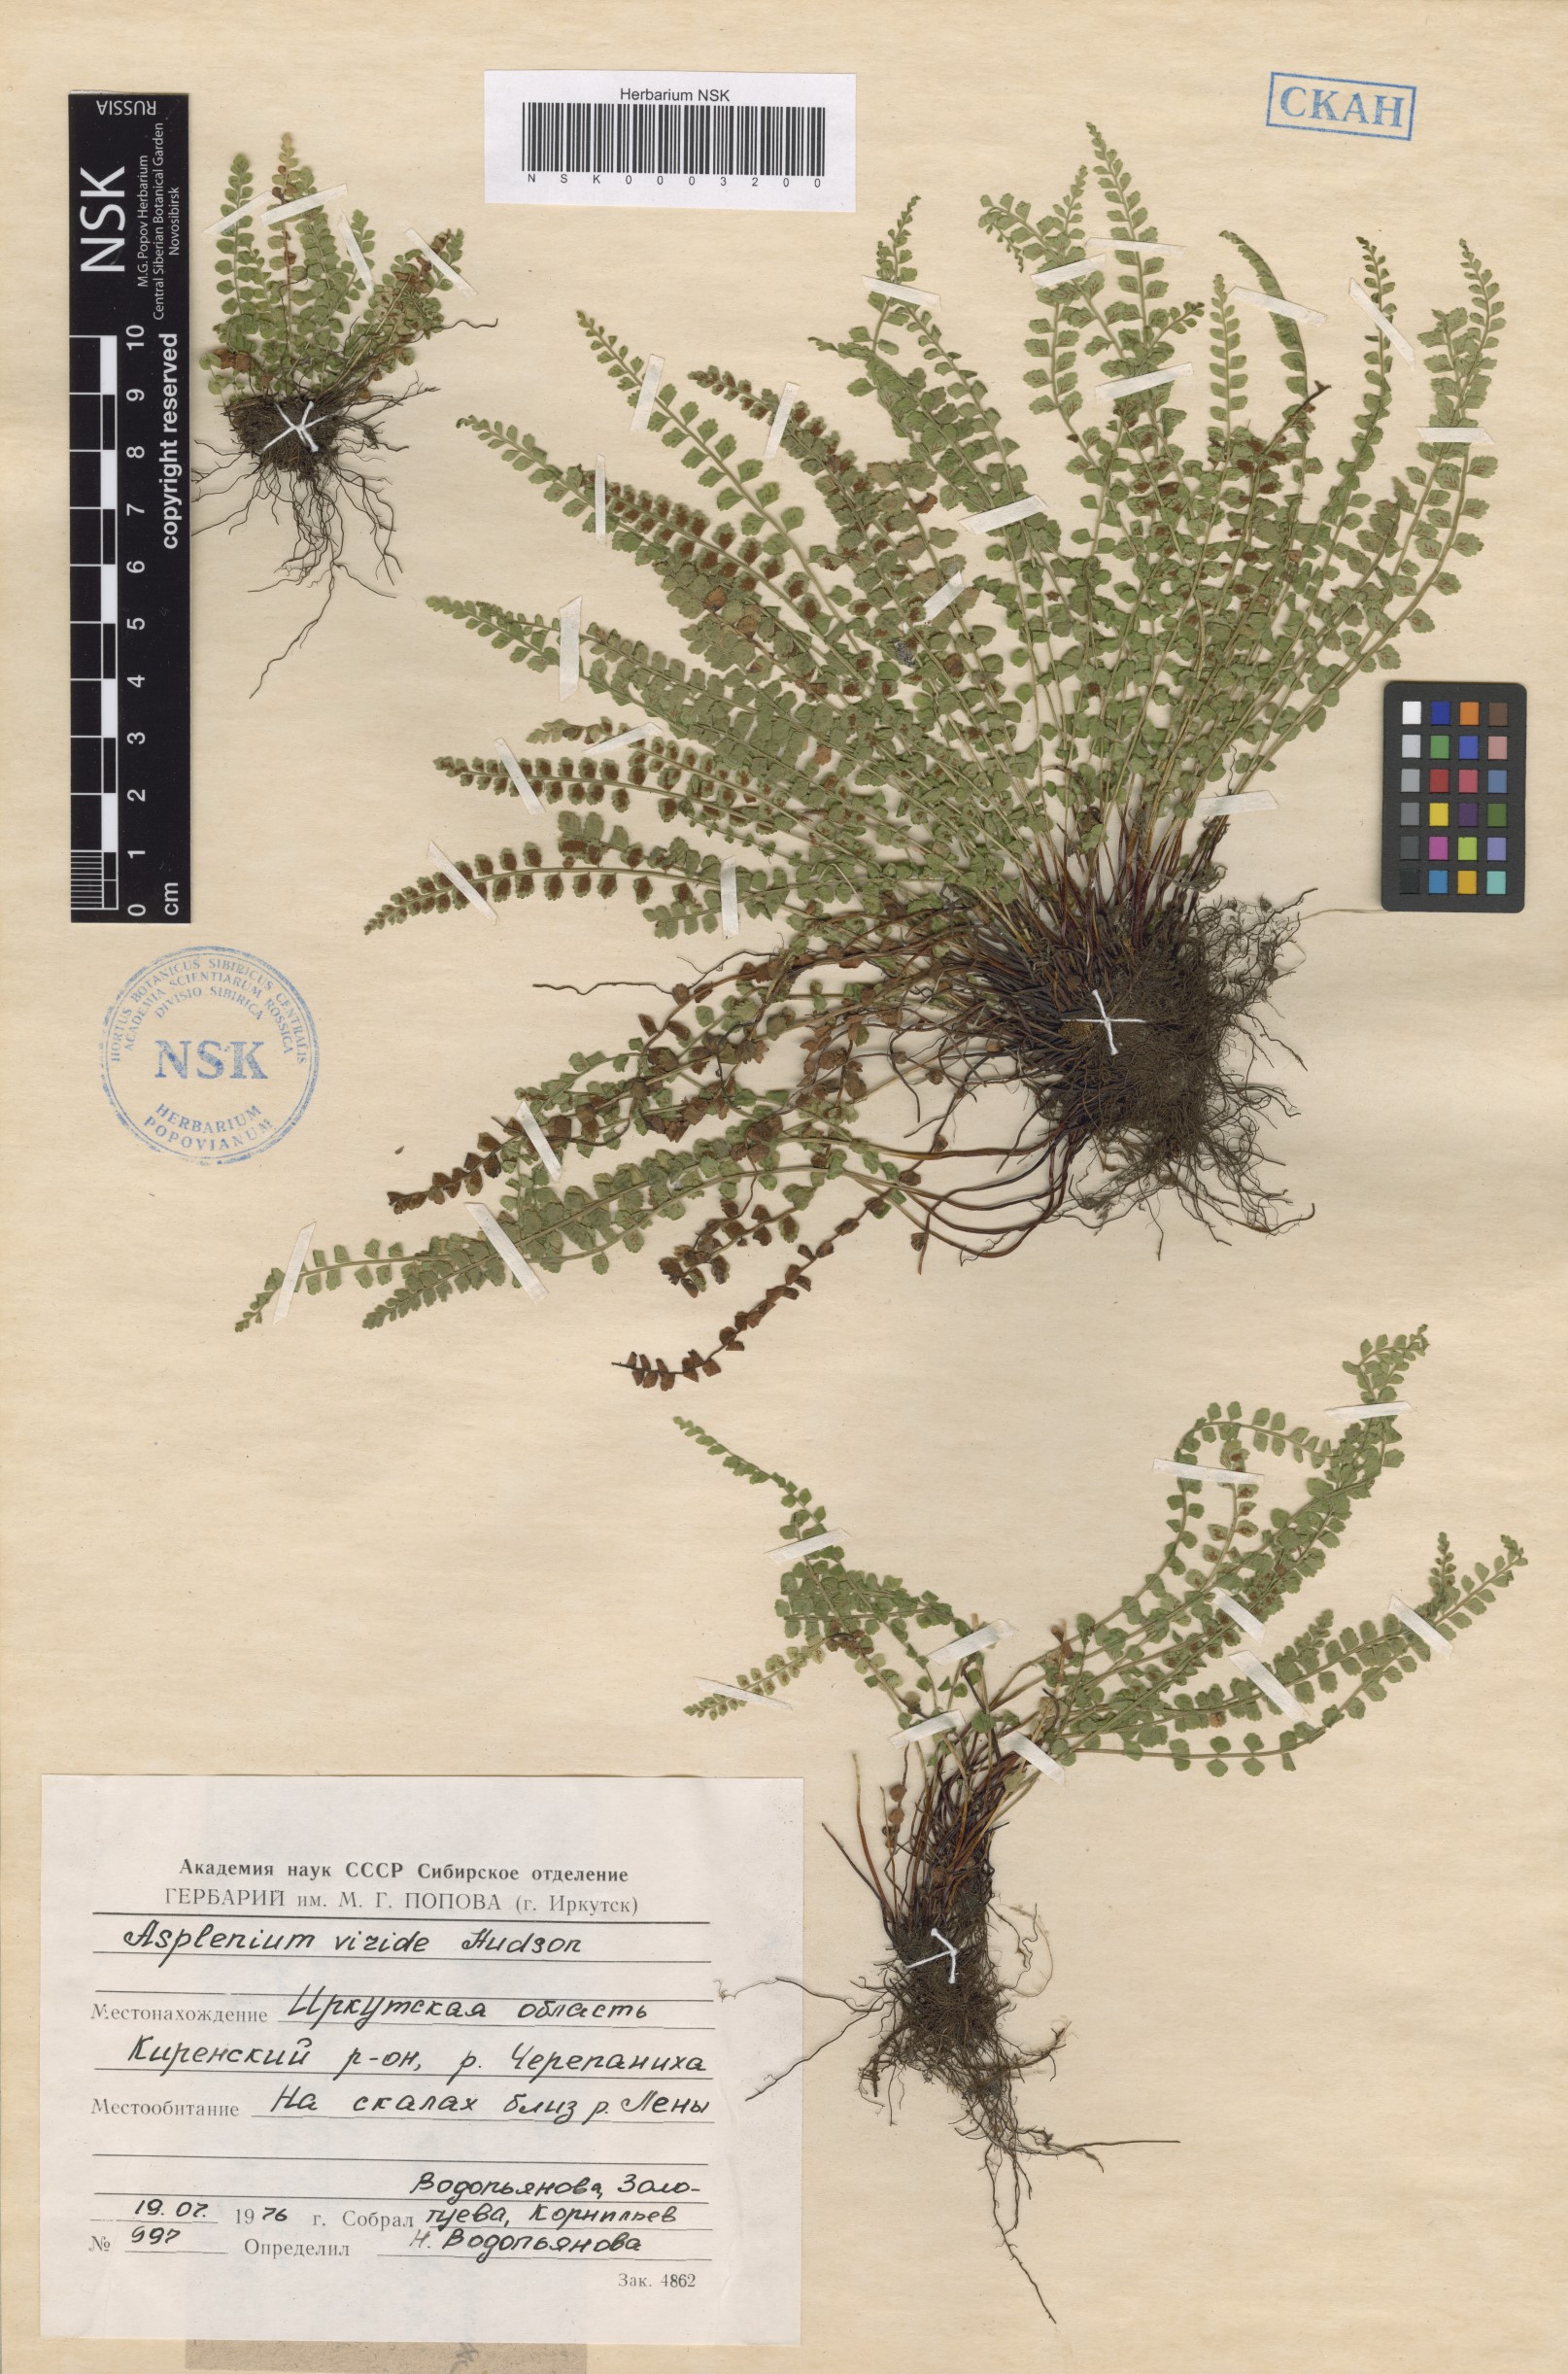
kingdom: Plantae
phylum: Tracheophyta
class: Polypodiopsida
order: Polypodiales
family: Aspleniaceae
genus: Asplenium
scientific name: Asplenium viride
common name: Green spleenwort
